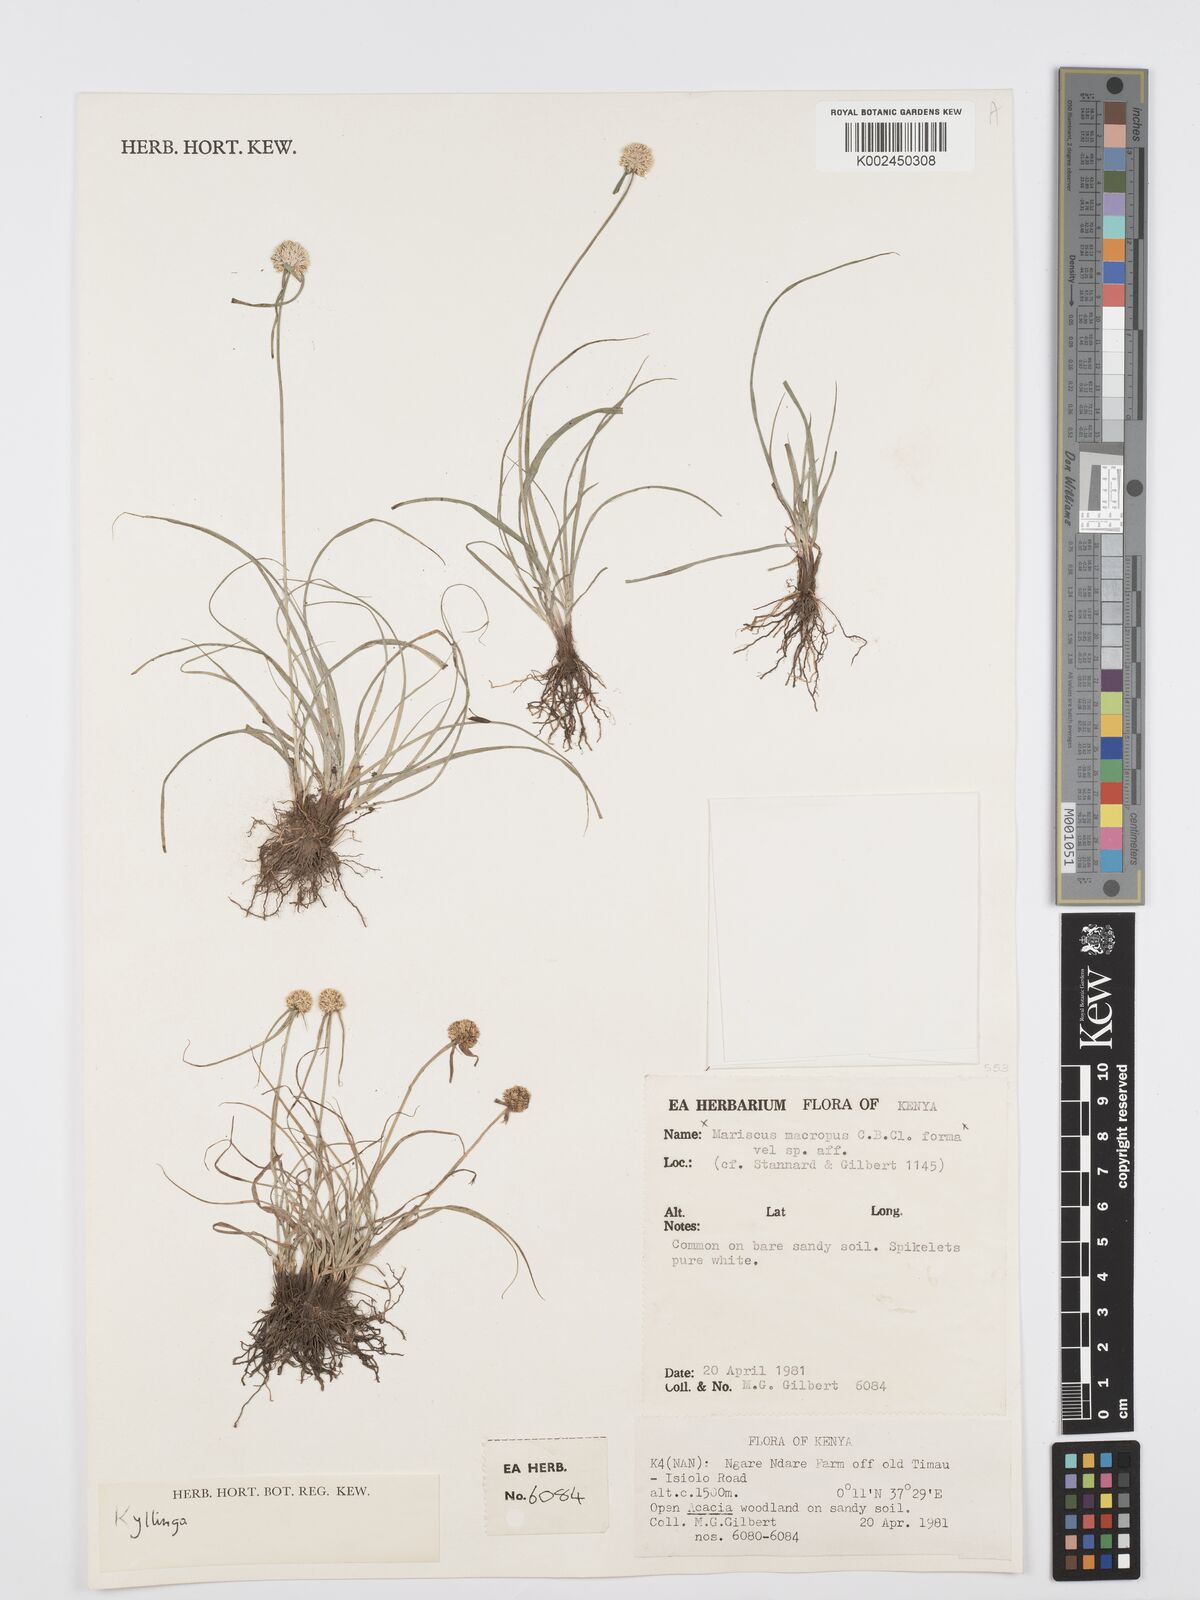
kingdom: Plantae
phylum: Tracheophyta
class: Liliopsida
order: Poales
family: Cyperaceae
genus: Cyperus
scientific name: Cyperus
